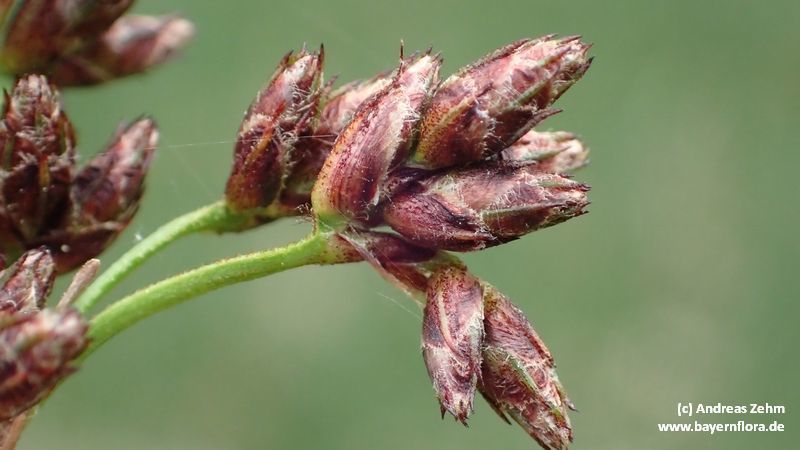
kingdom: Plantae
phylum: Tracheophyta
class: Liliopsida
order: Poales
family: Cyperaceae
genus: Schoenoplectus
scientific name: Schoenoplectus tabernaemontani
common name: Grey club-rush
